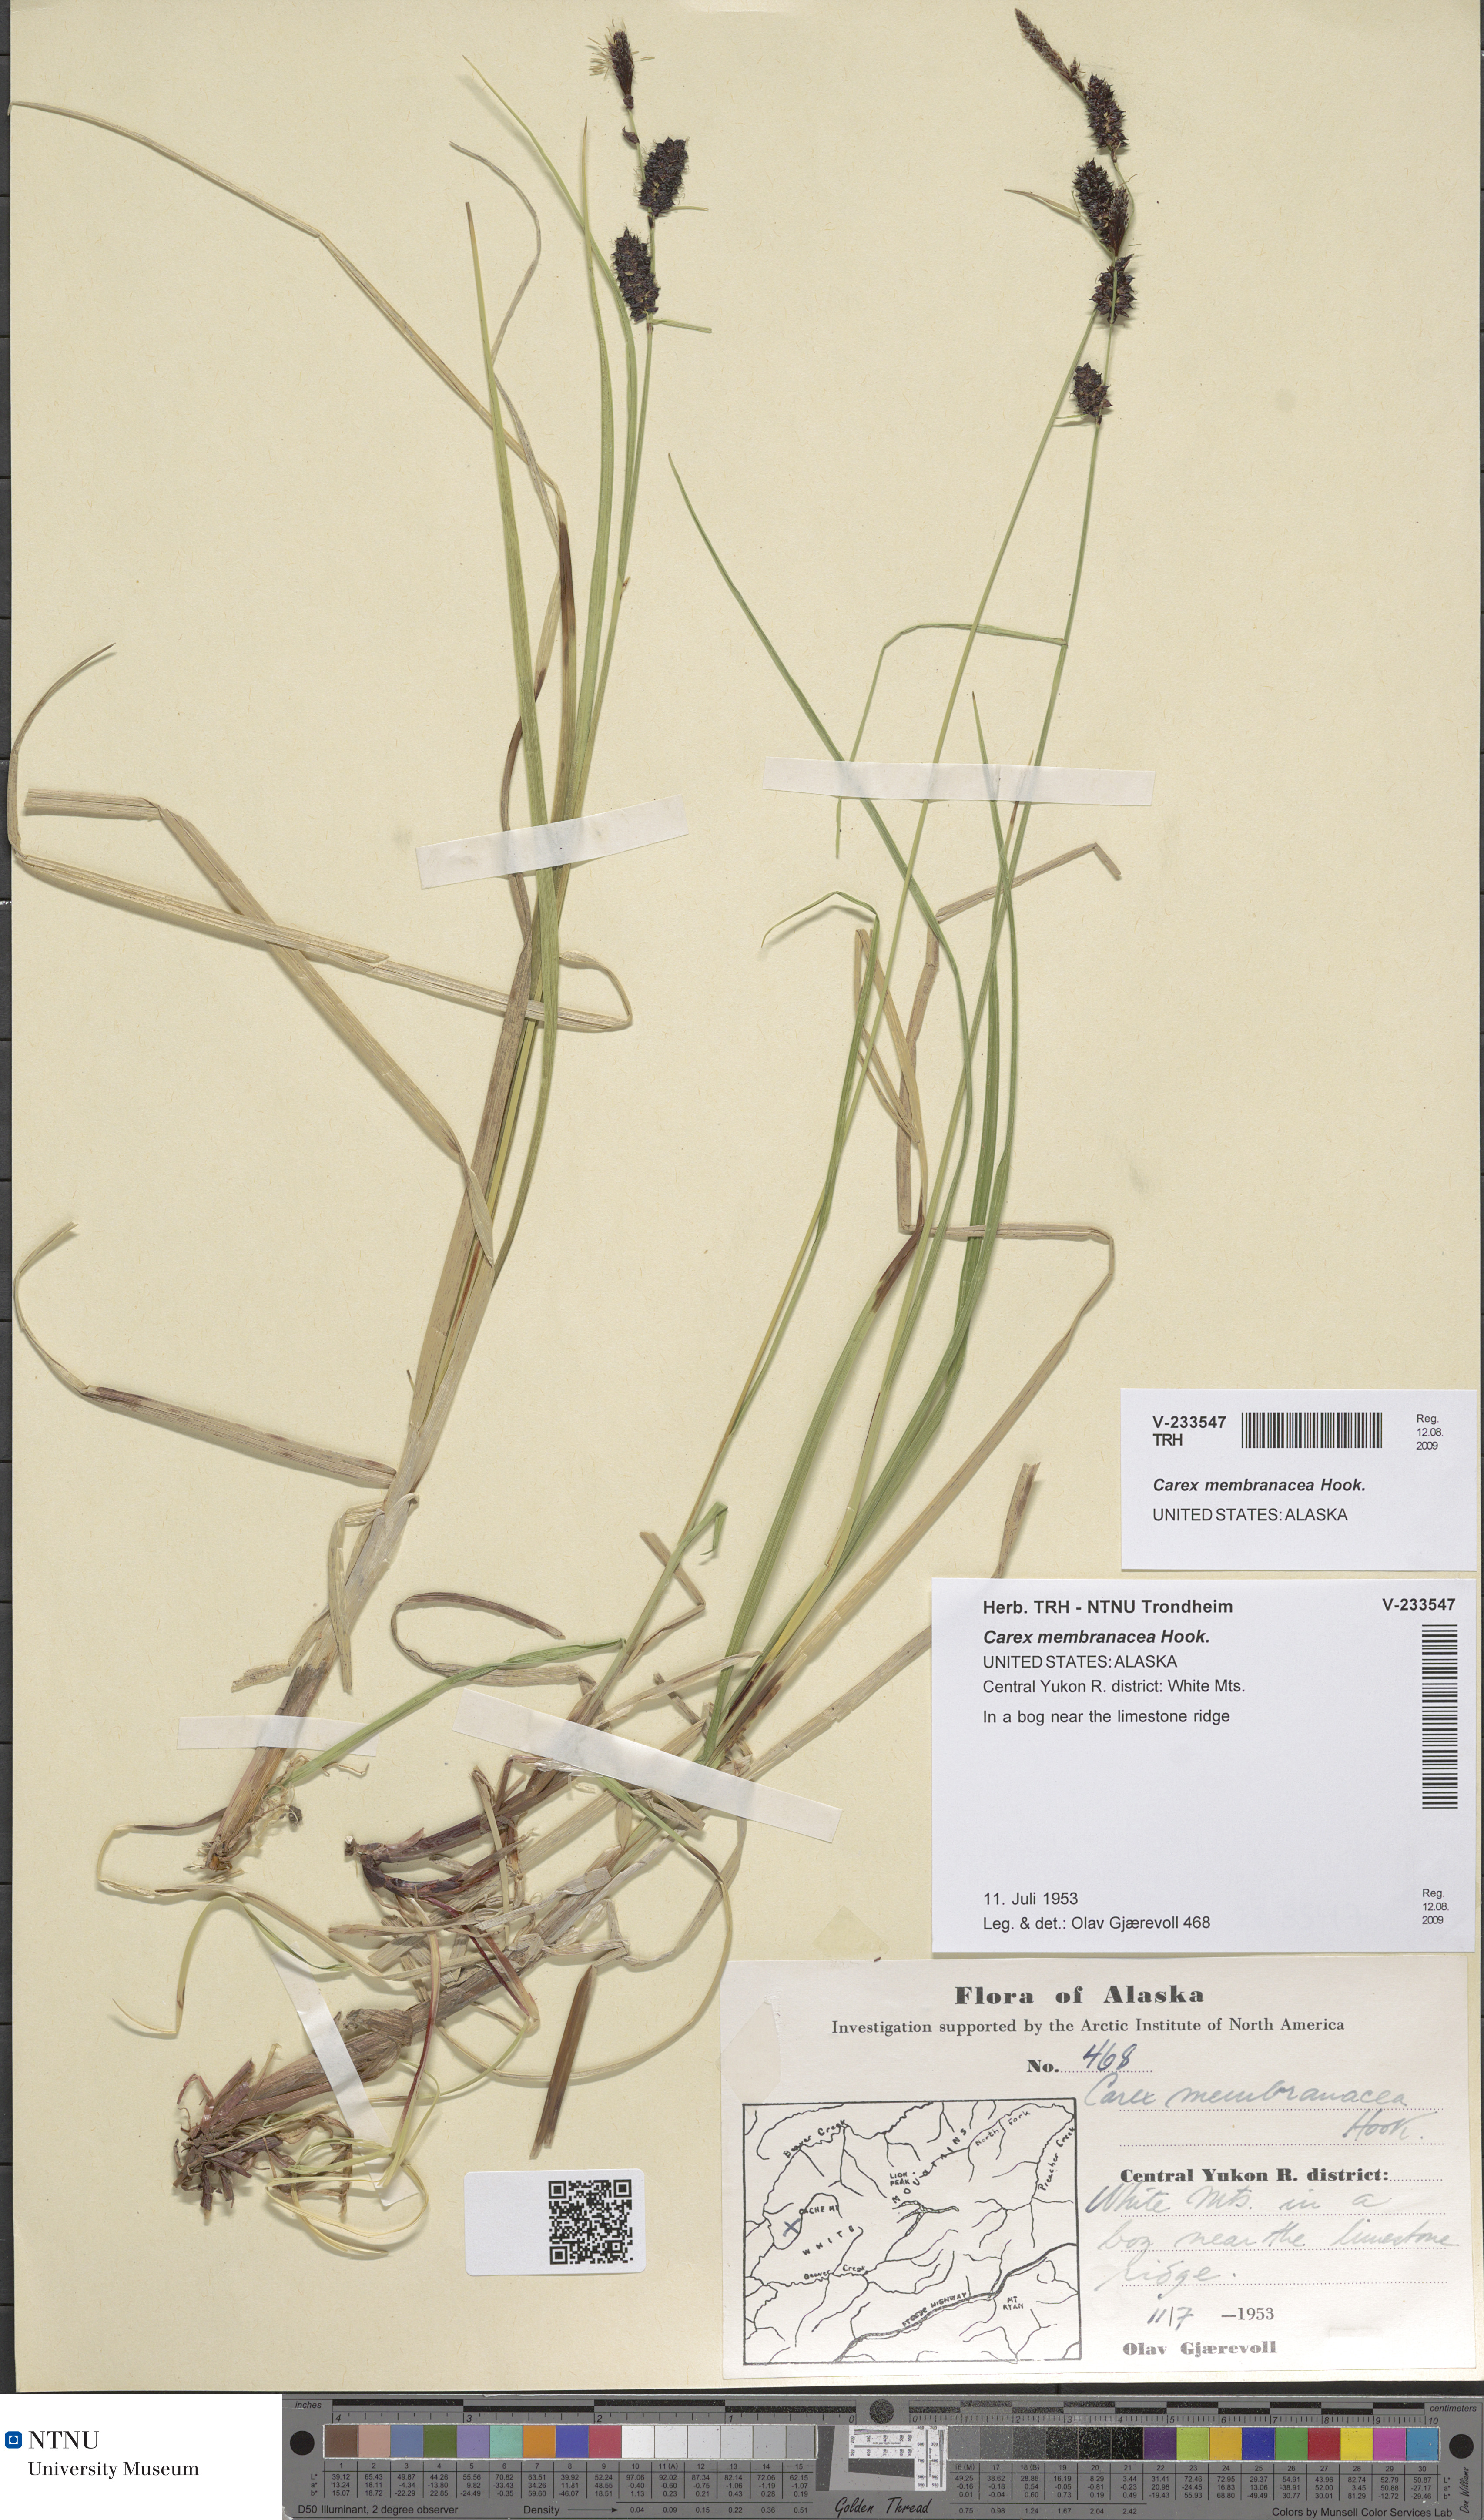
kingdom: Plantae
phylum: Tracheophyta
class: Liliopsida
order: Poales
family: Cyperaceae
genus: Carex
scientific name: Carex membranacea
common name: Fragile sedge
